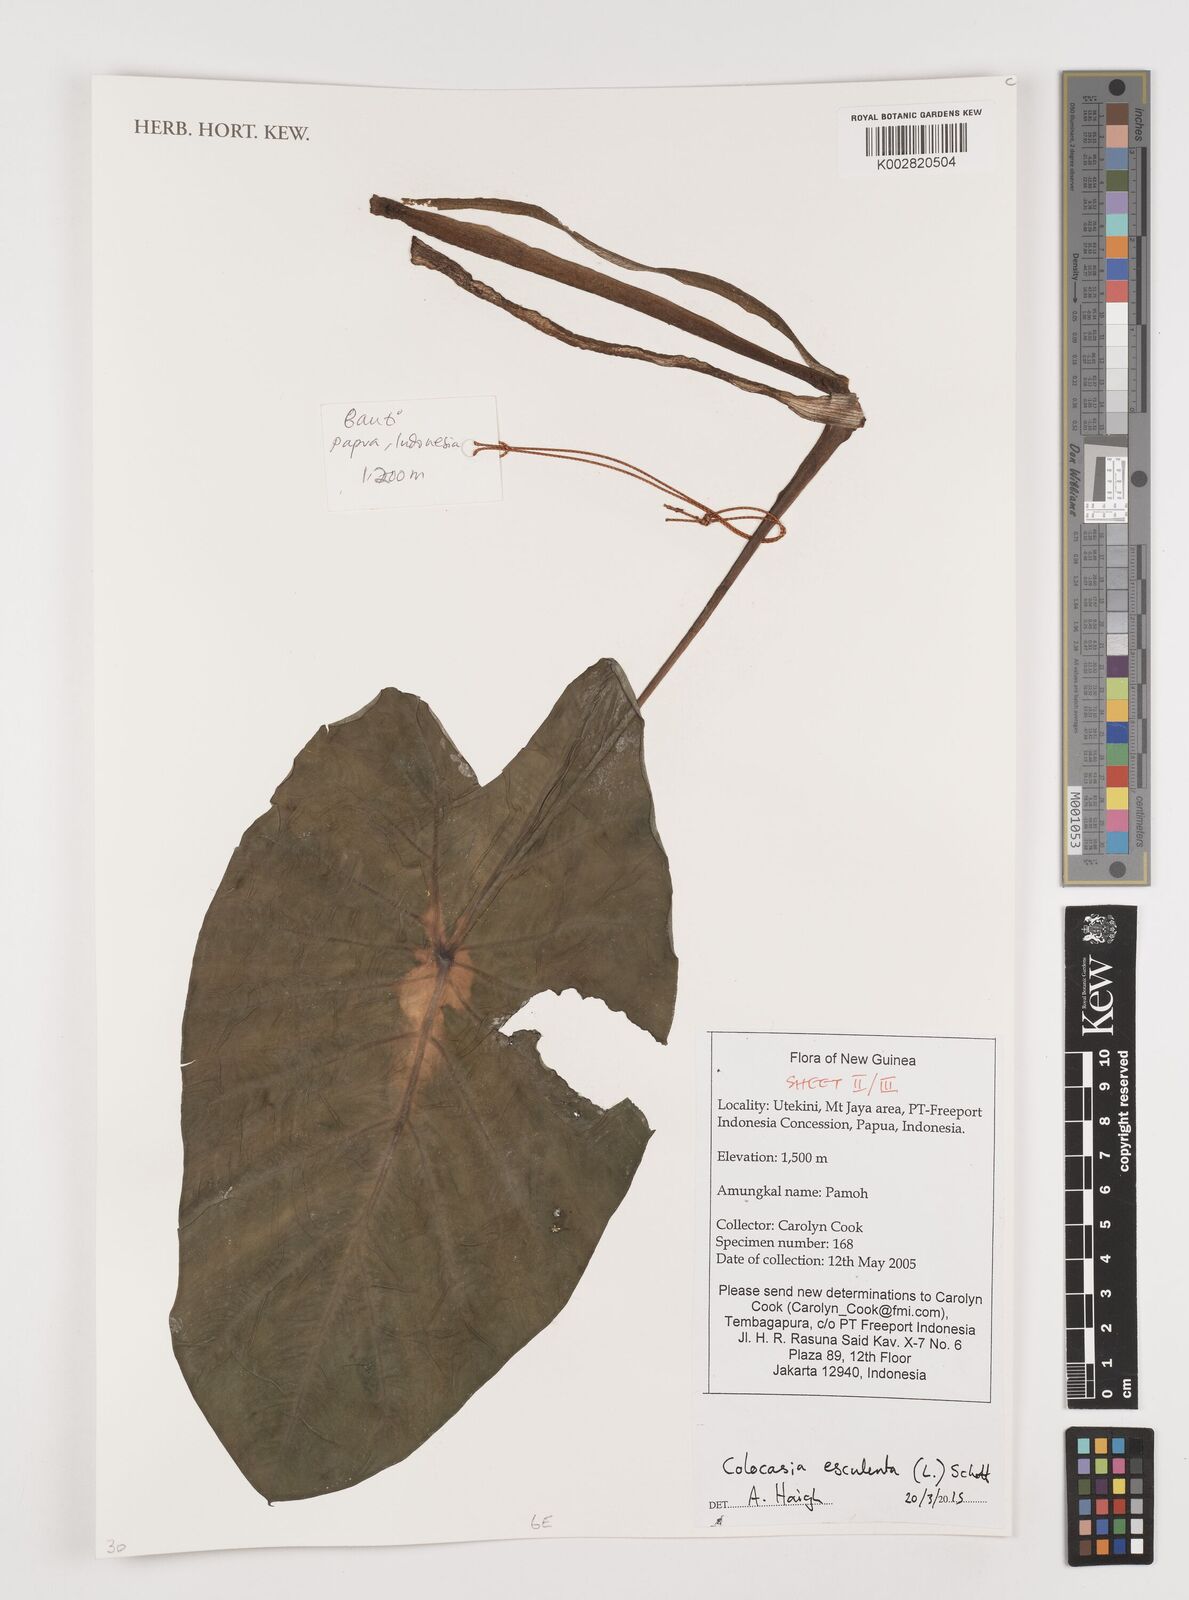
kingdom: Plantae
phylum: Tracheophyta
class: Liliopsida
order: Alismatales
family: Araceae
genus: Colocasia
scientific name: Colocasia esculenta
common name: Taro
